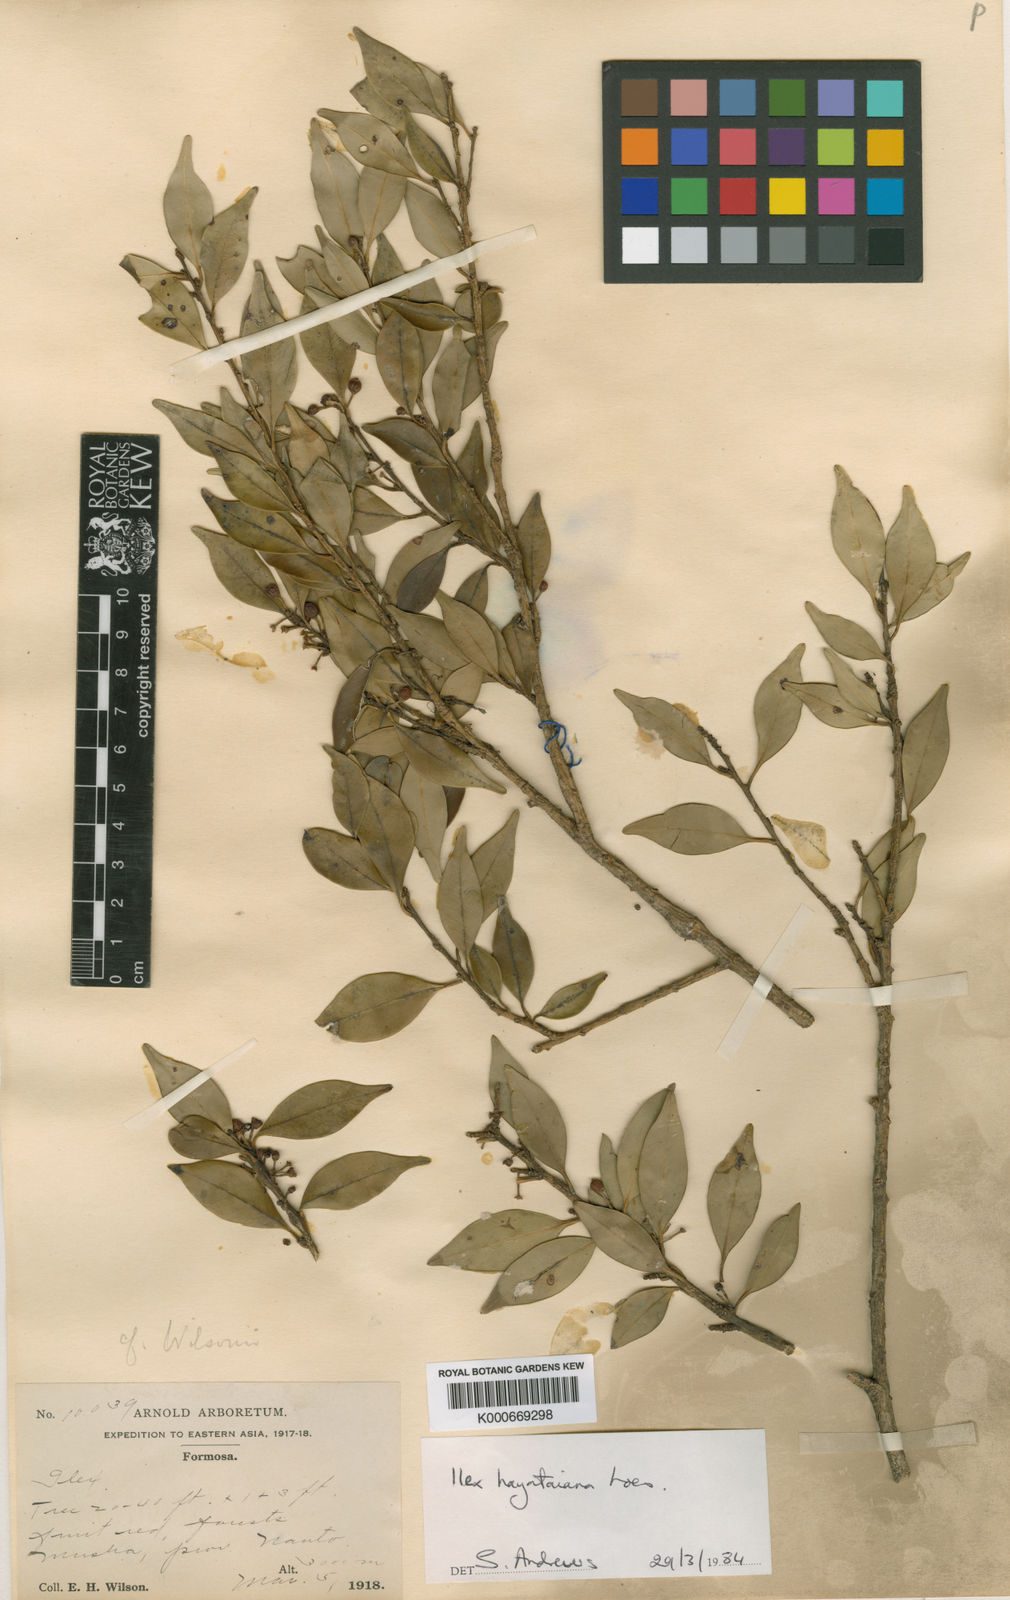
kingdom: Plantae
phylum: Tracheophyta
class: Magnoliopsida
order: Aquifoliales
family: Aquifoliaceae
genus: Ilex
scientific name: Ilex
